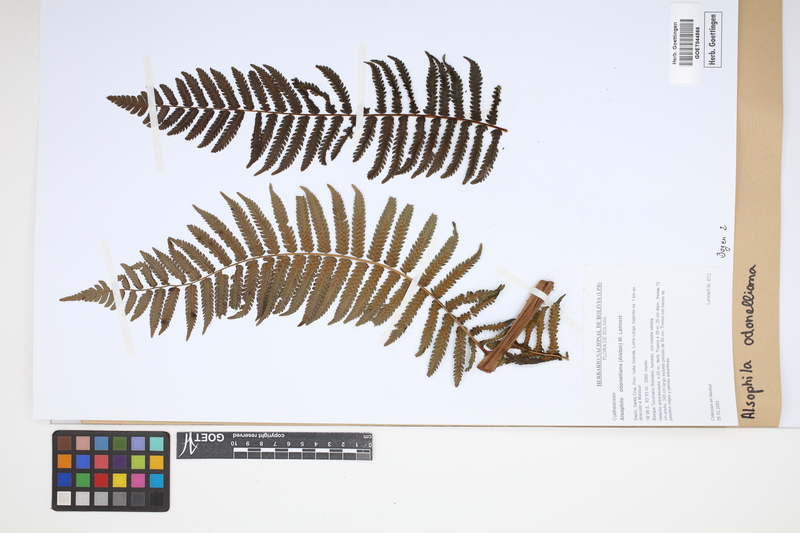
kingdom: Plantae
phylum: Tracheophyta
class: Polypodiopsida
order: Cyatheales
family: Cyatheaceae
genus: Alsophila
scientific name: Alsophila odonelliana
